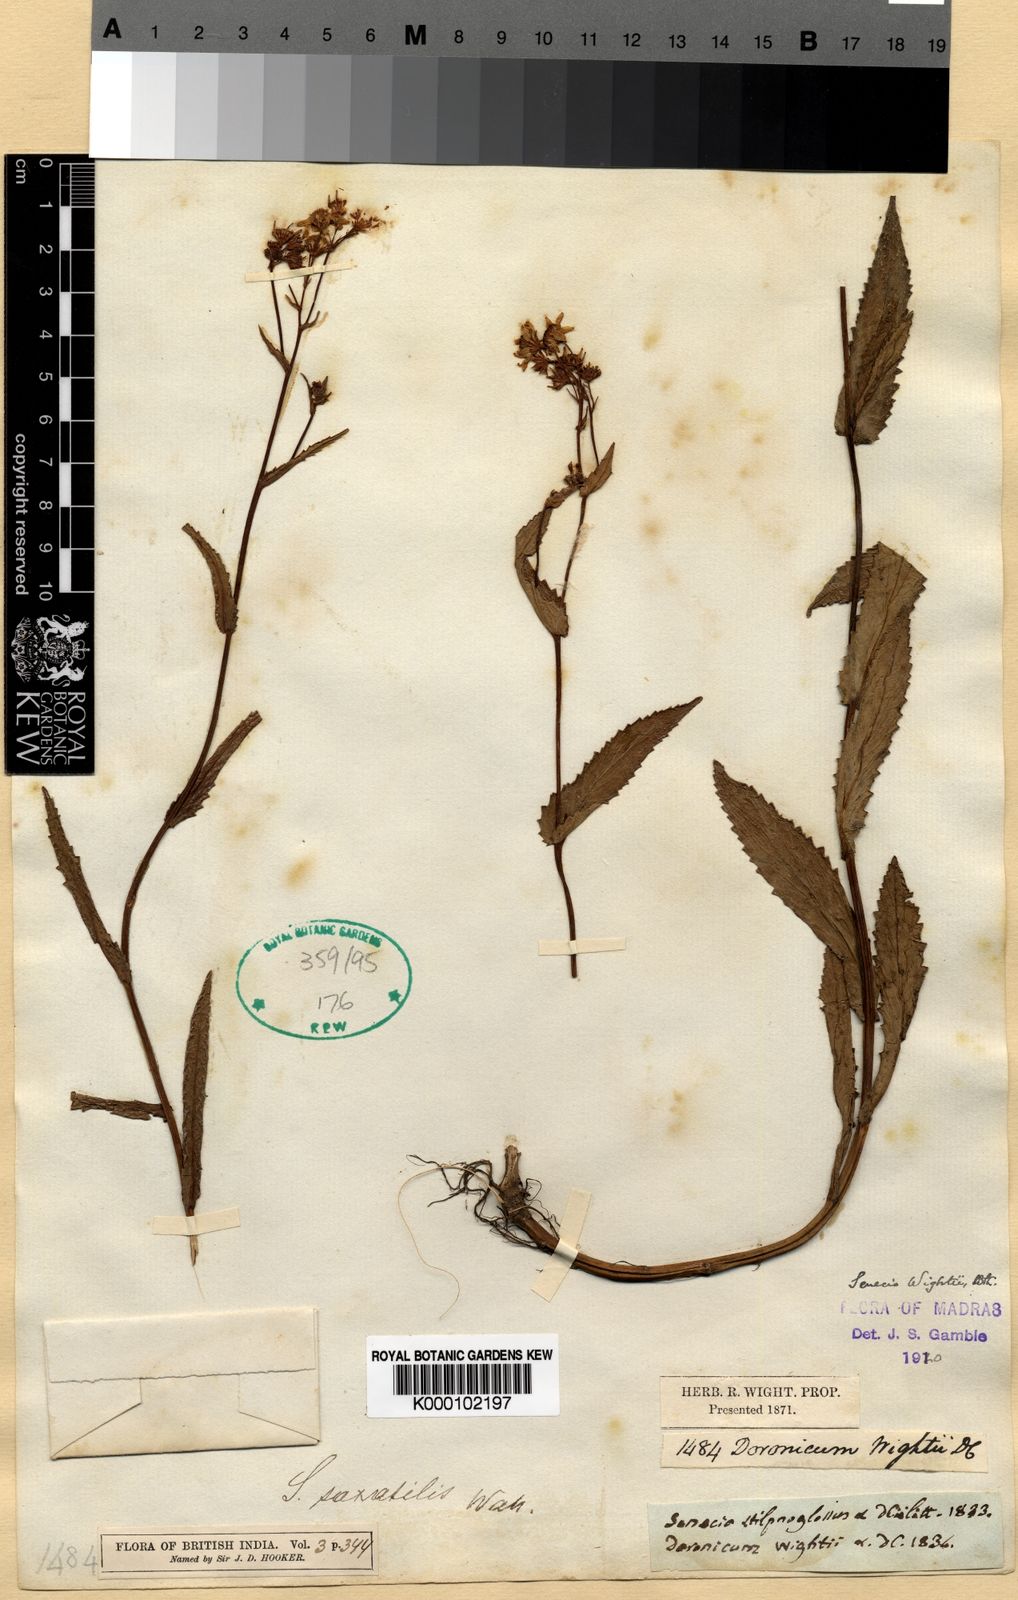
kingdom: Plantae
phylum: Tracheophyta
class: Magnoliopsida
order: Asterales
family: Asteraceae
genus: Senecio
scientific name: Senecio wightii
